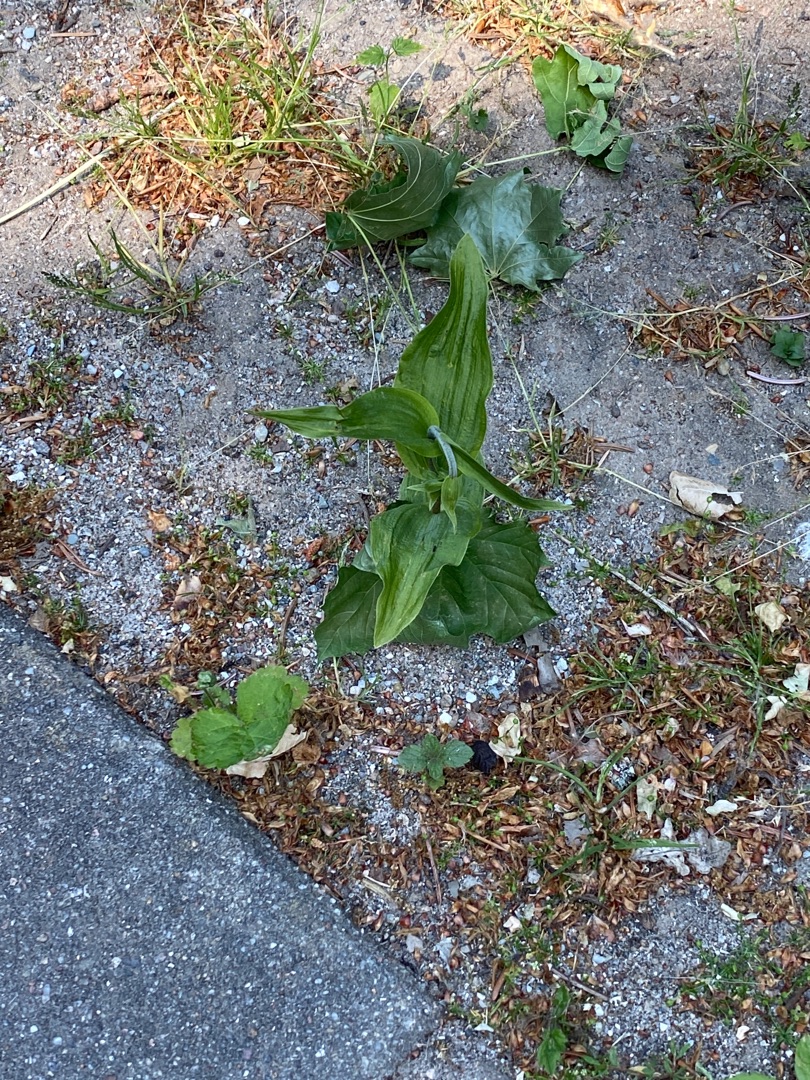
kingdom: Plantae
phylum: Tracheophyta
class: Liliopsida
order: Asparagales
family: Orchidaceae
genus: Epipactis
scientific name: Epipactis helleborine
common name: Skov-hullæbe
